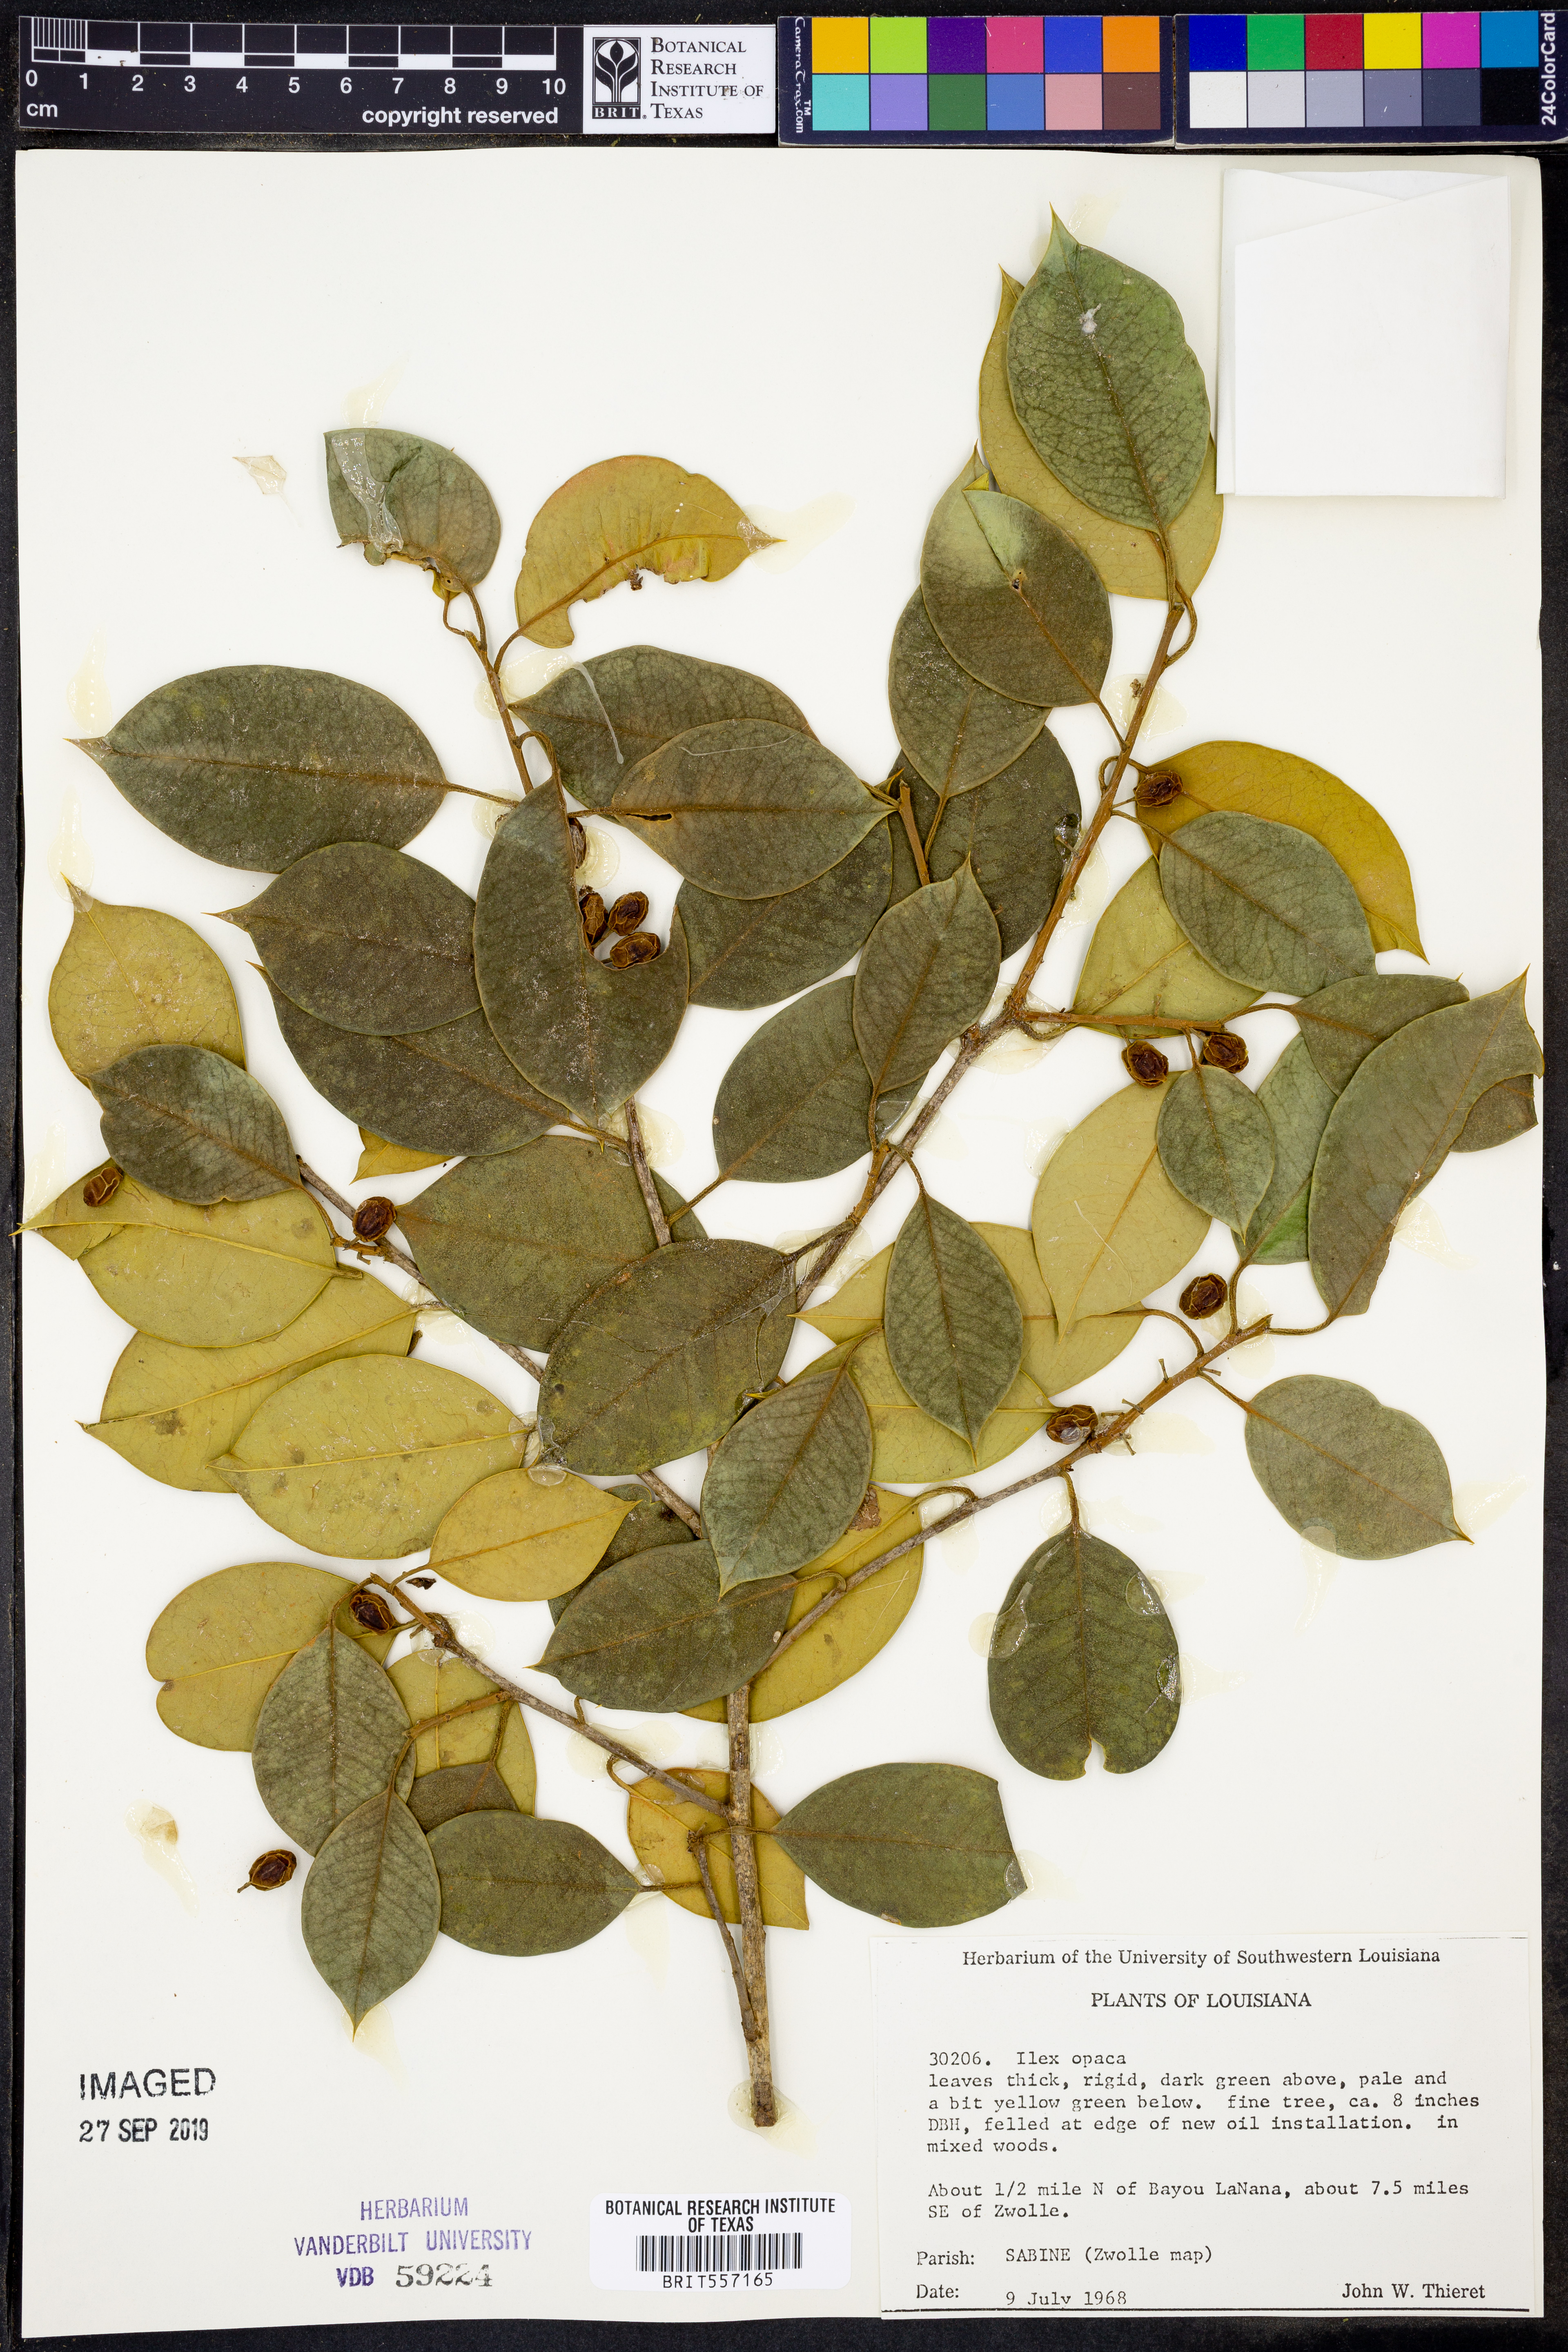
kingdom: Plantae
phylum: Tracheophyta
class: Magnoliopsida
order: Aquifoliales
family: Aquifoliaceae
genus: Ilex
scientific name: Ilex opaca
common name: American holly
